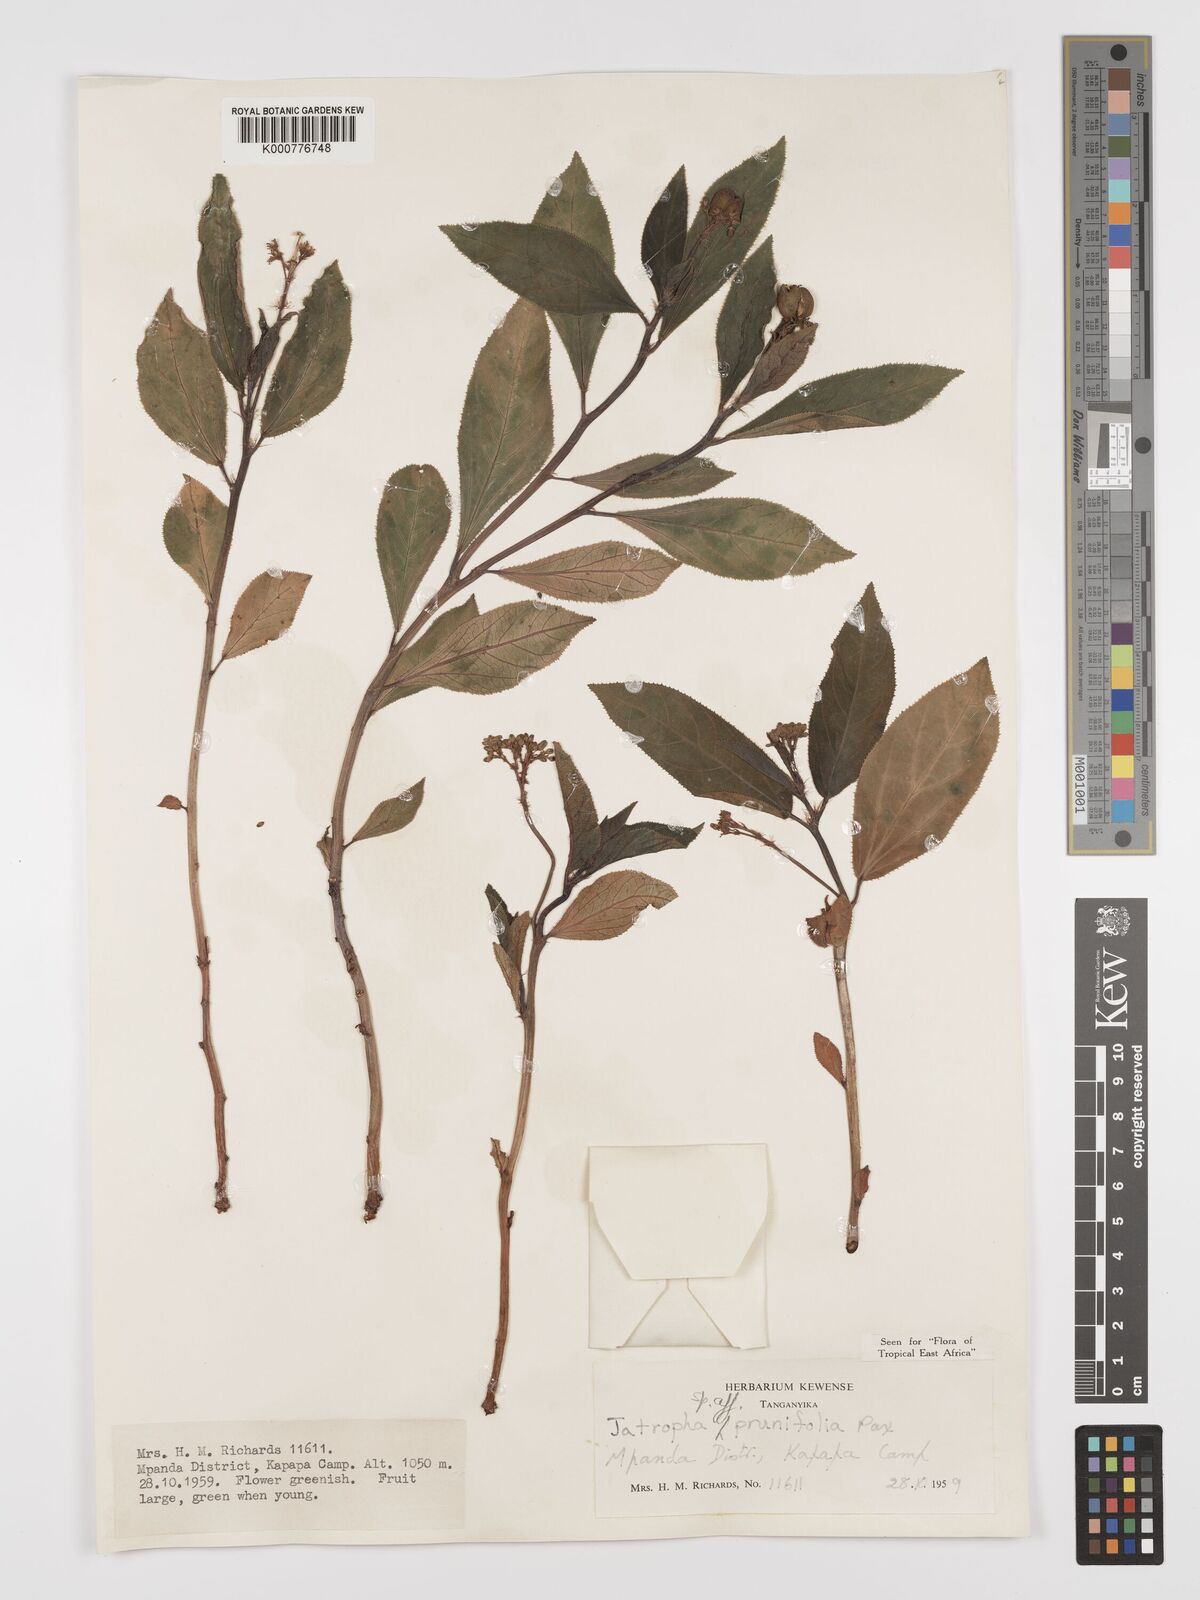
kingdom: Plantae
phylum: Tracheophyta
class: Magnoliopsida
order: Malpighiales
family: Euphorbiaceae
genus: Jatropha
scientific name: Jatropha
